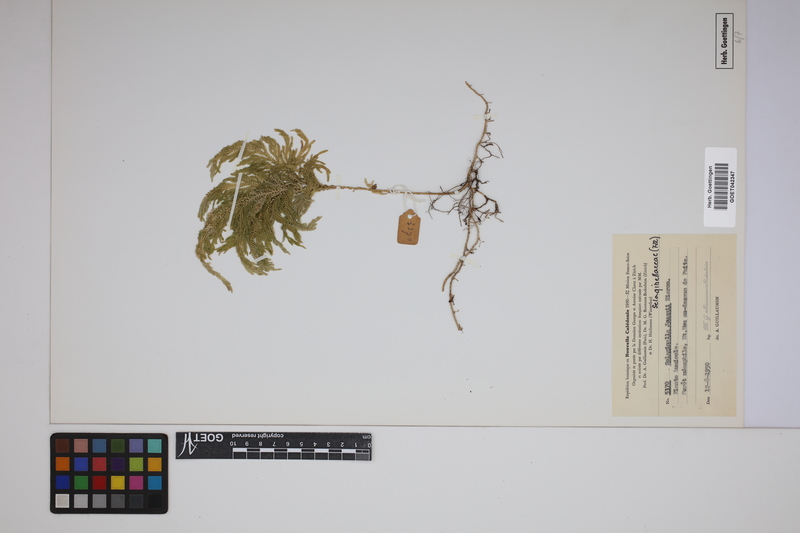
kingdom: Plantae
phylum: Tracheophyta
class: Lycopodiopsida
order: Selaginellales
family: Selaginellaceae
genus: Selaginella
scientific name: Selaginella firmuloides
